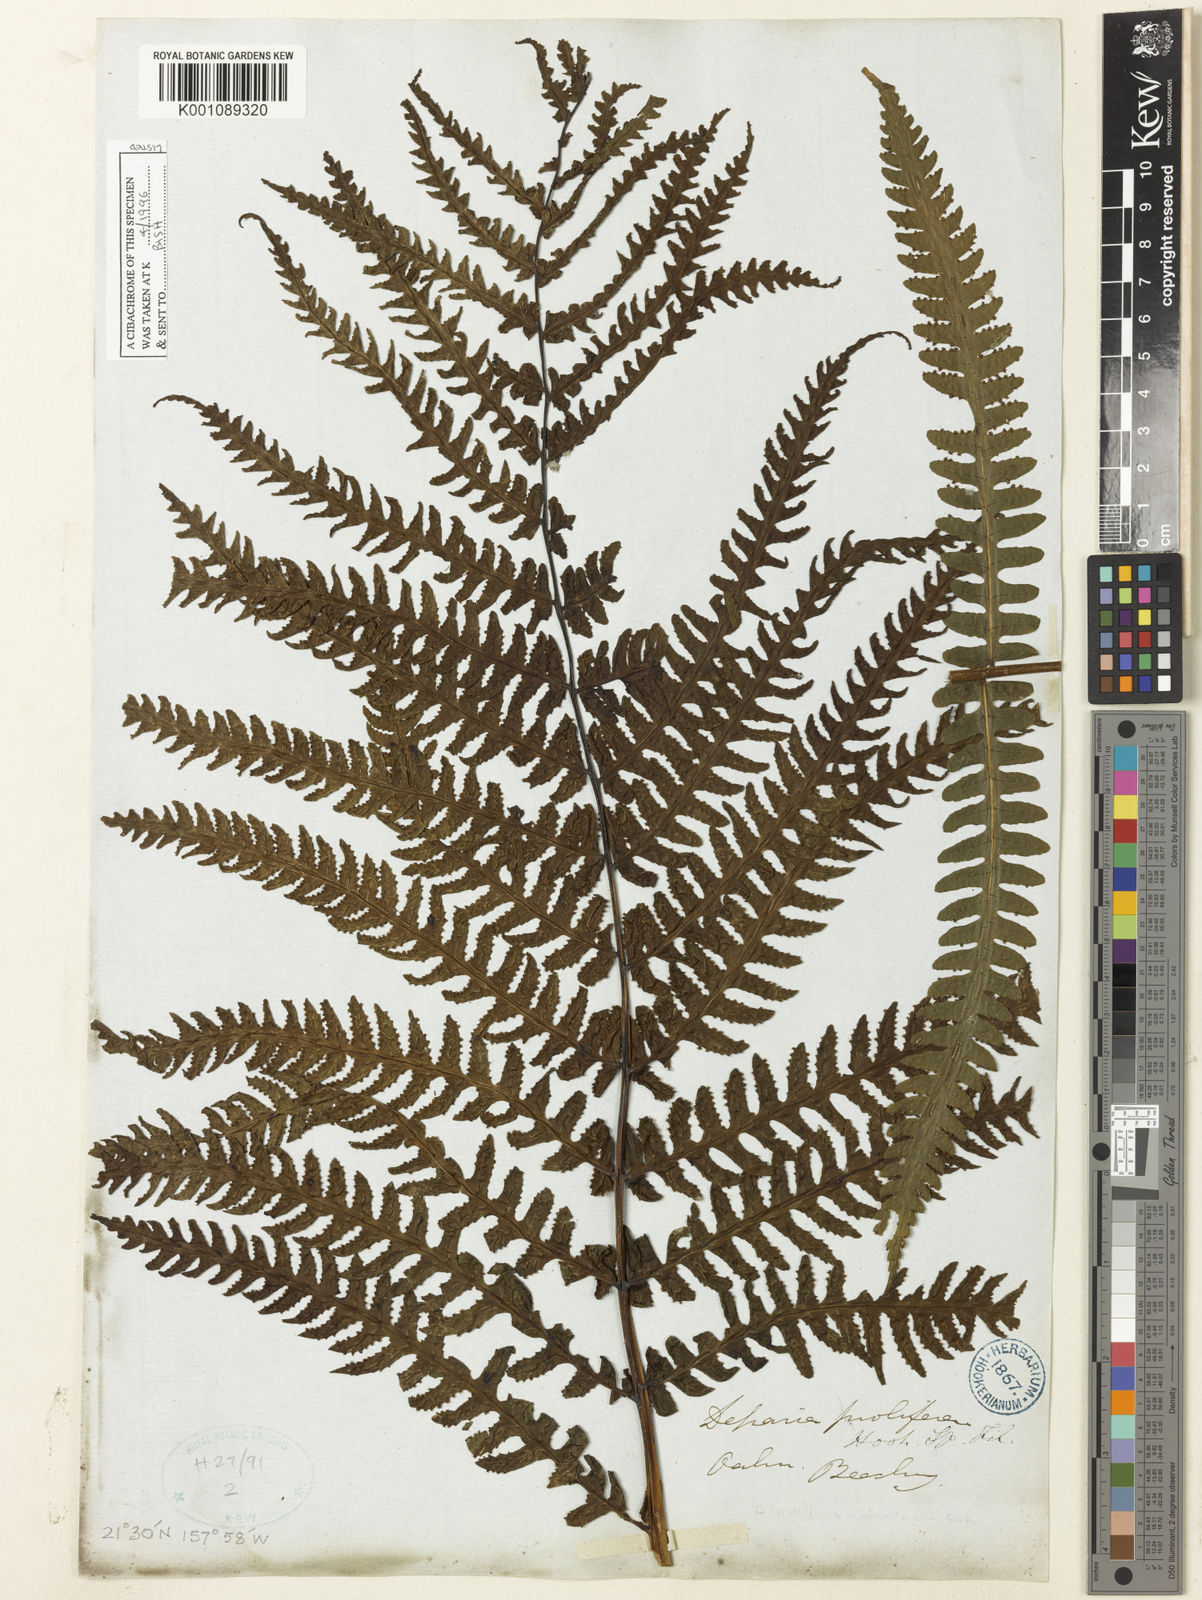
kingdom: Plantae
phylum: Tracheophyta
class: Polypodiopsida
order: Polypodiales
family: Athyriaceae
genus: Deparia
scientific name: Deparia prolifera
